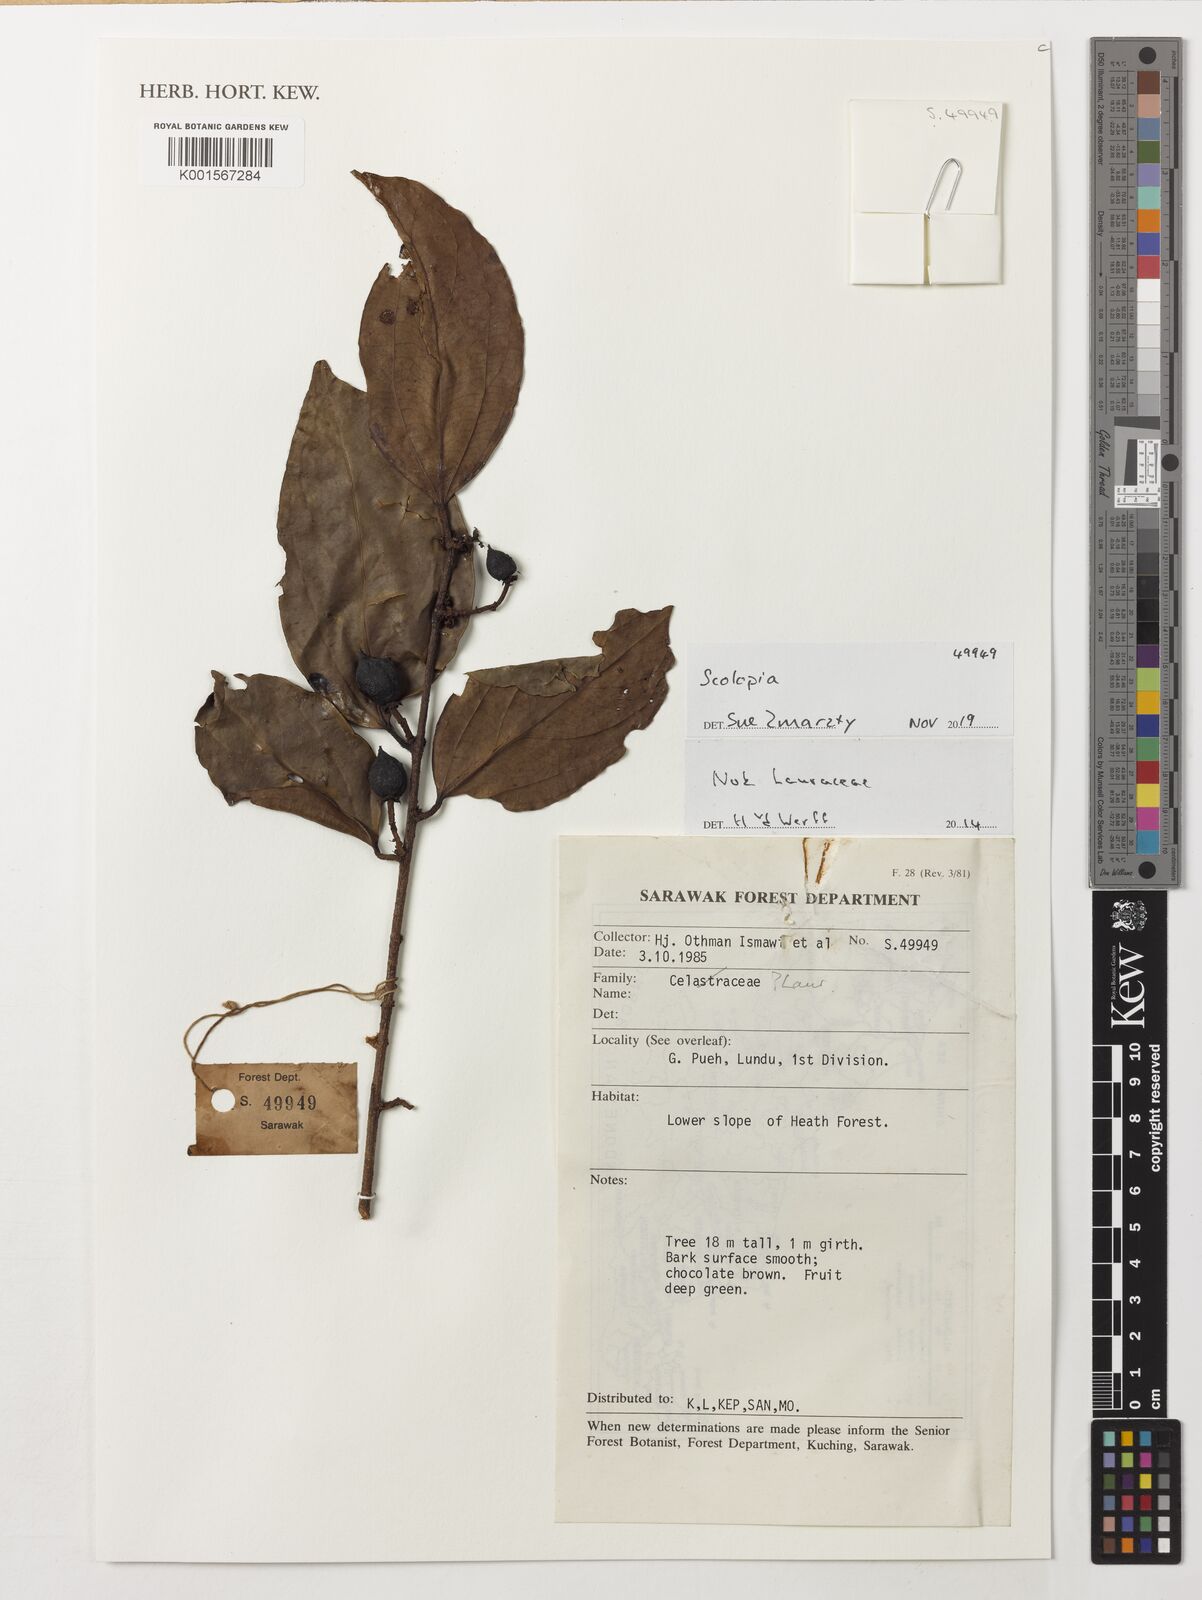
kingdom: Plantae
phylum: Tracheophyta
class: Magnoliopsida
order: Malpighiales
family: Salicaceae
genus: Scolopia
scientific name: Scolopia
